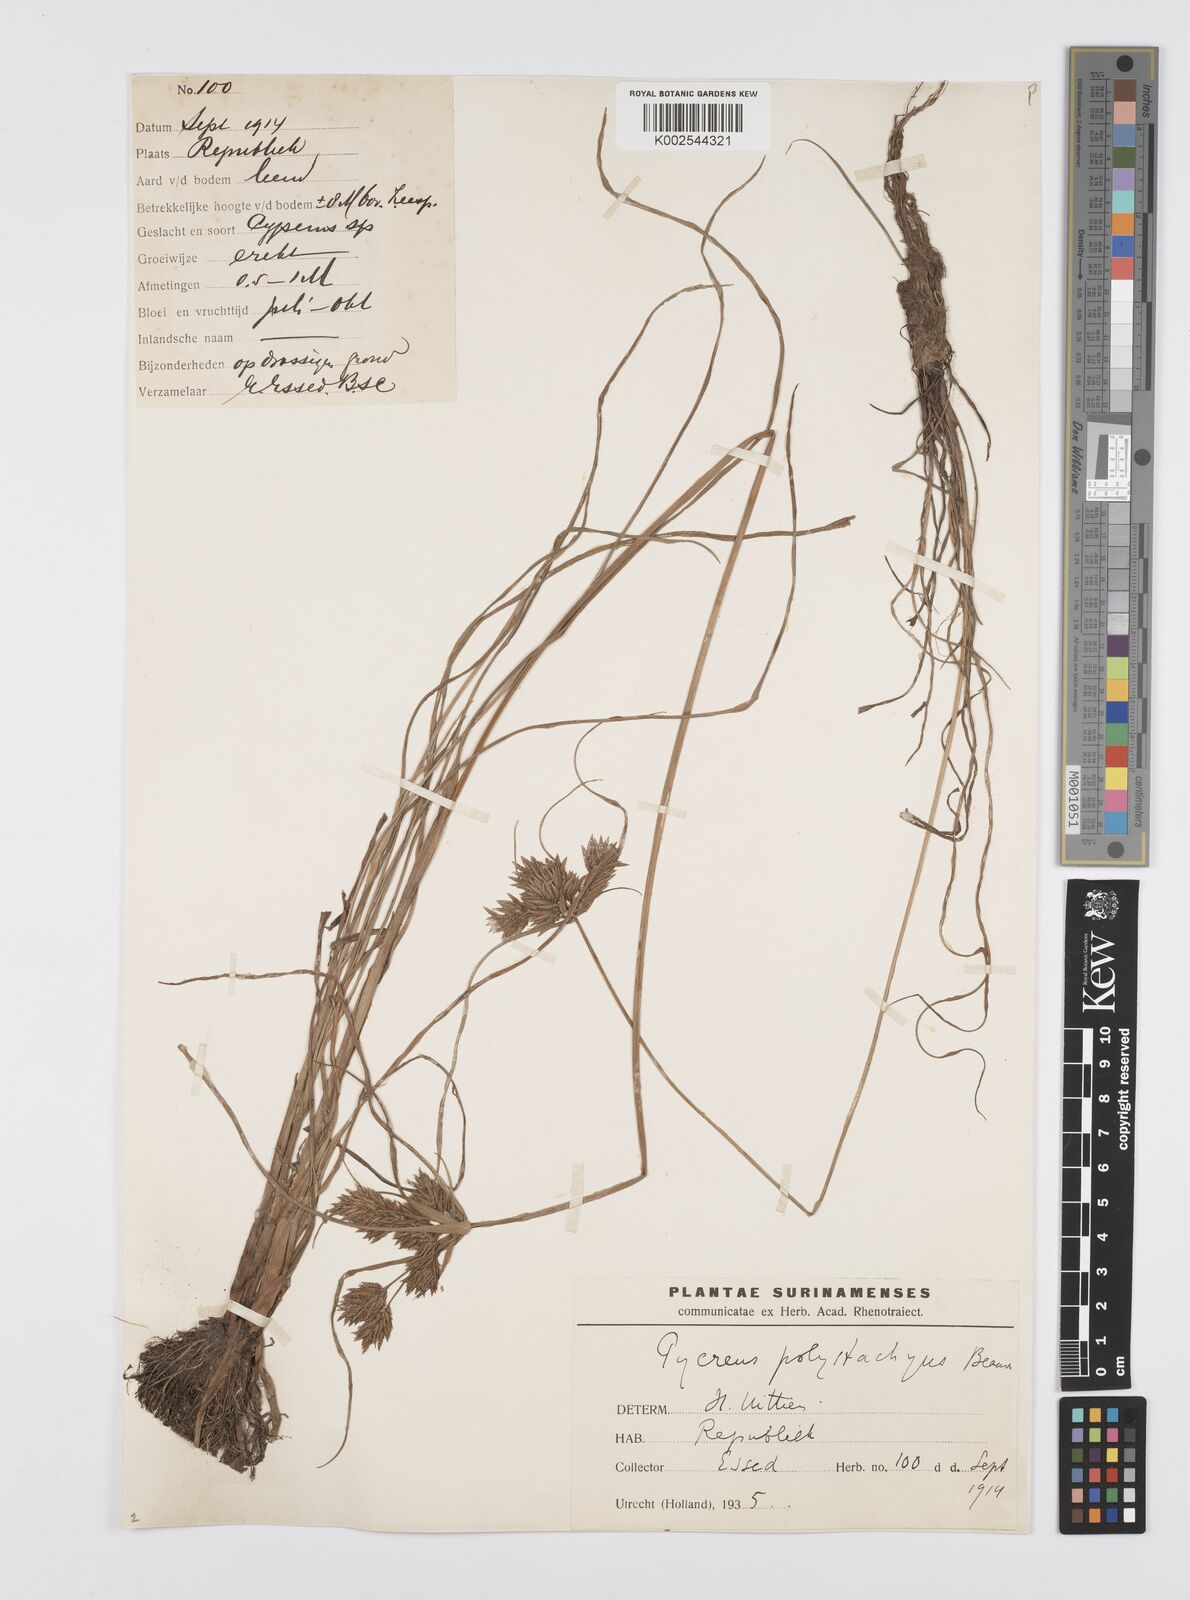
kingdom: Plantae
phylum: Tracheophyta
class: Liliopsida
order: Poales
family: Cyperaceae
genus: Cyperus
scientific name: Cyperus polystachyos
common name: Bunchy flat sedge
